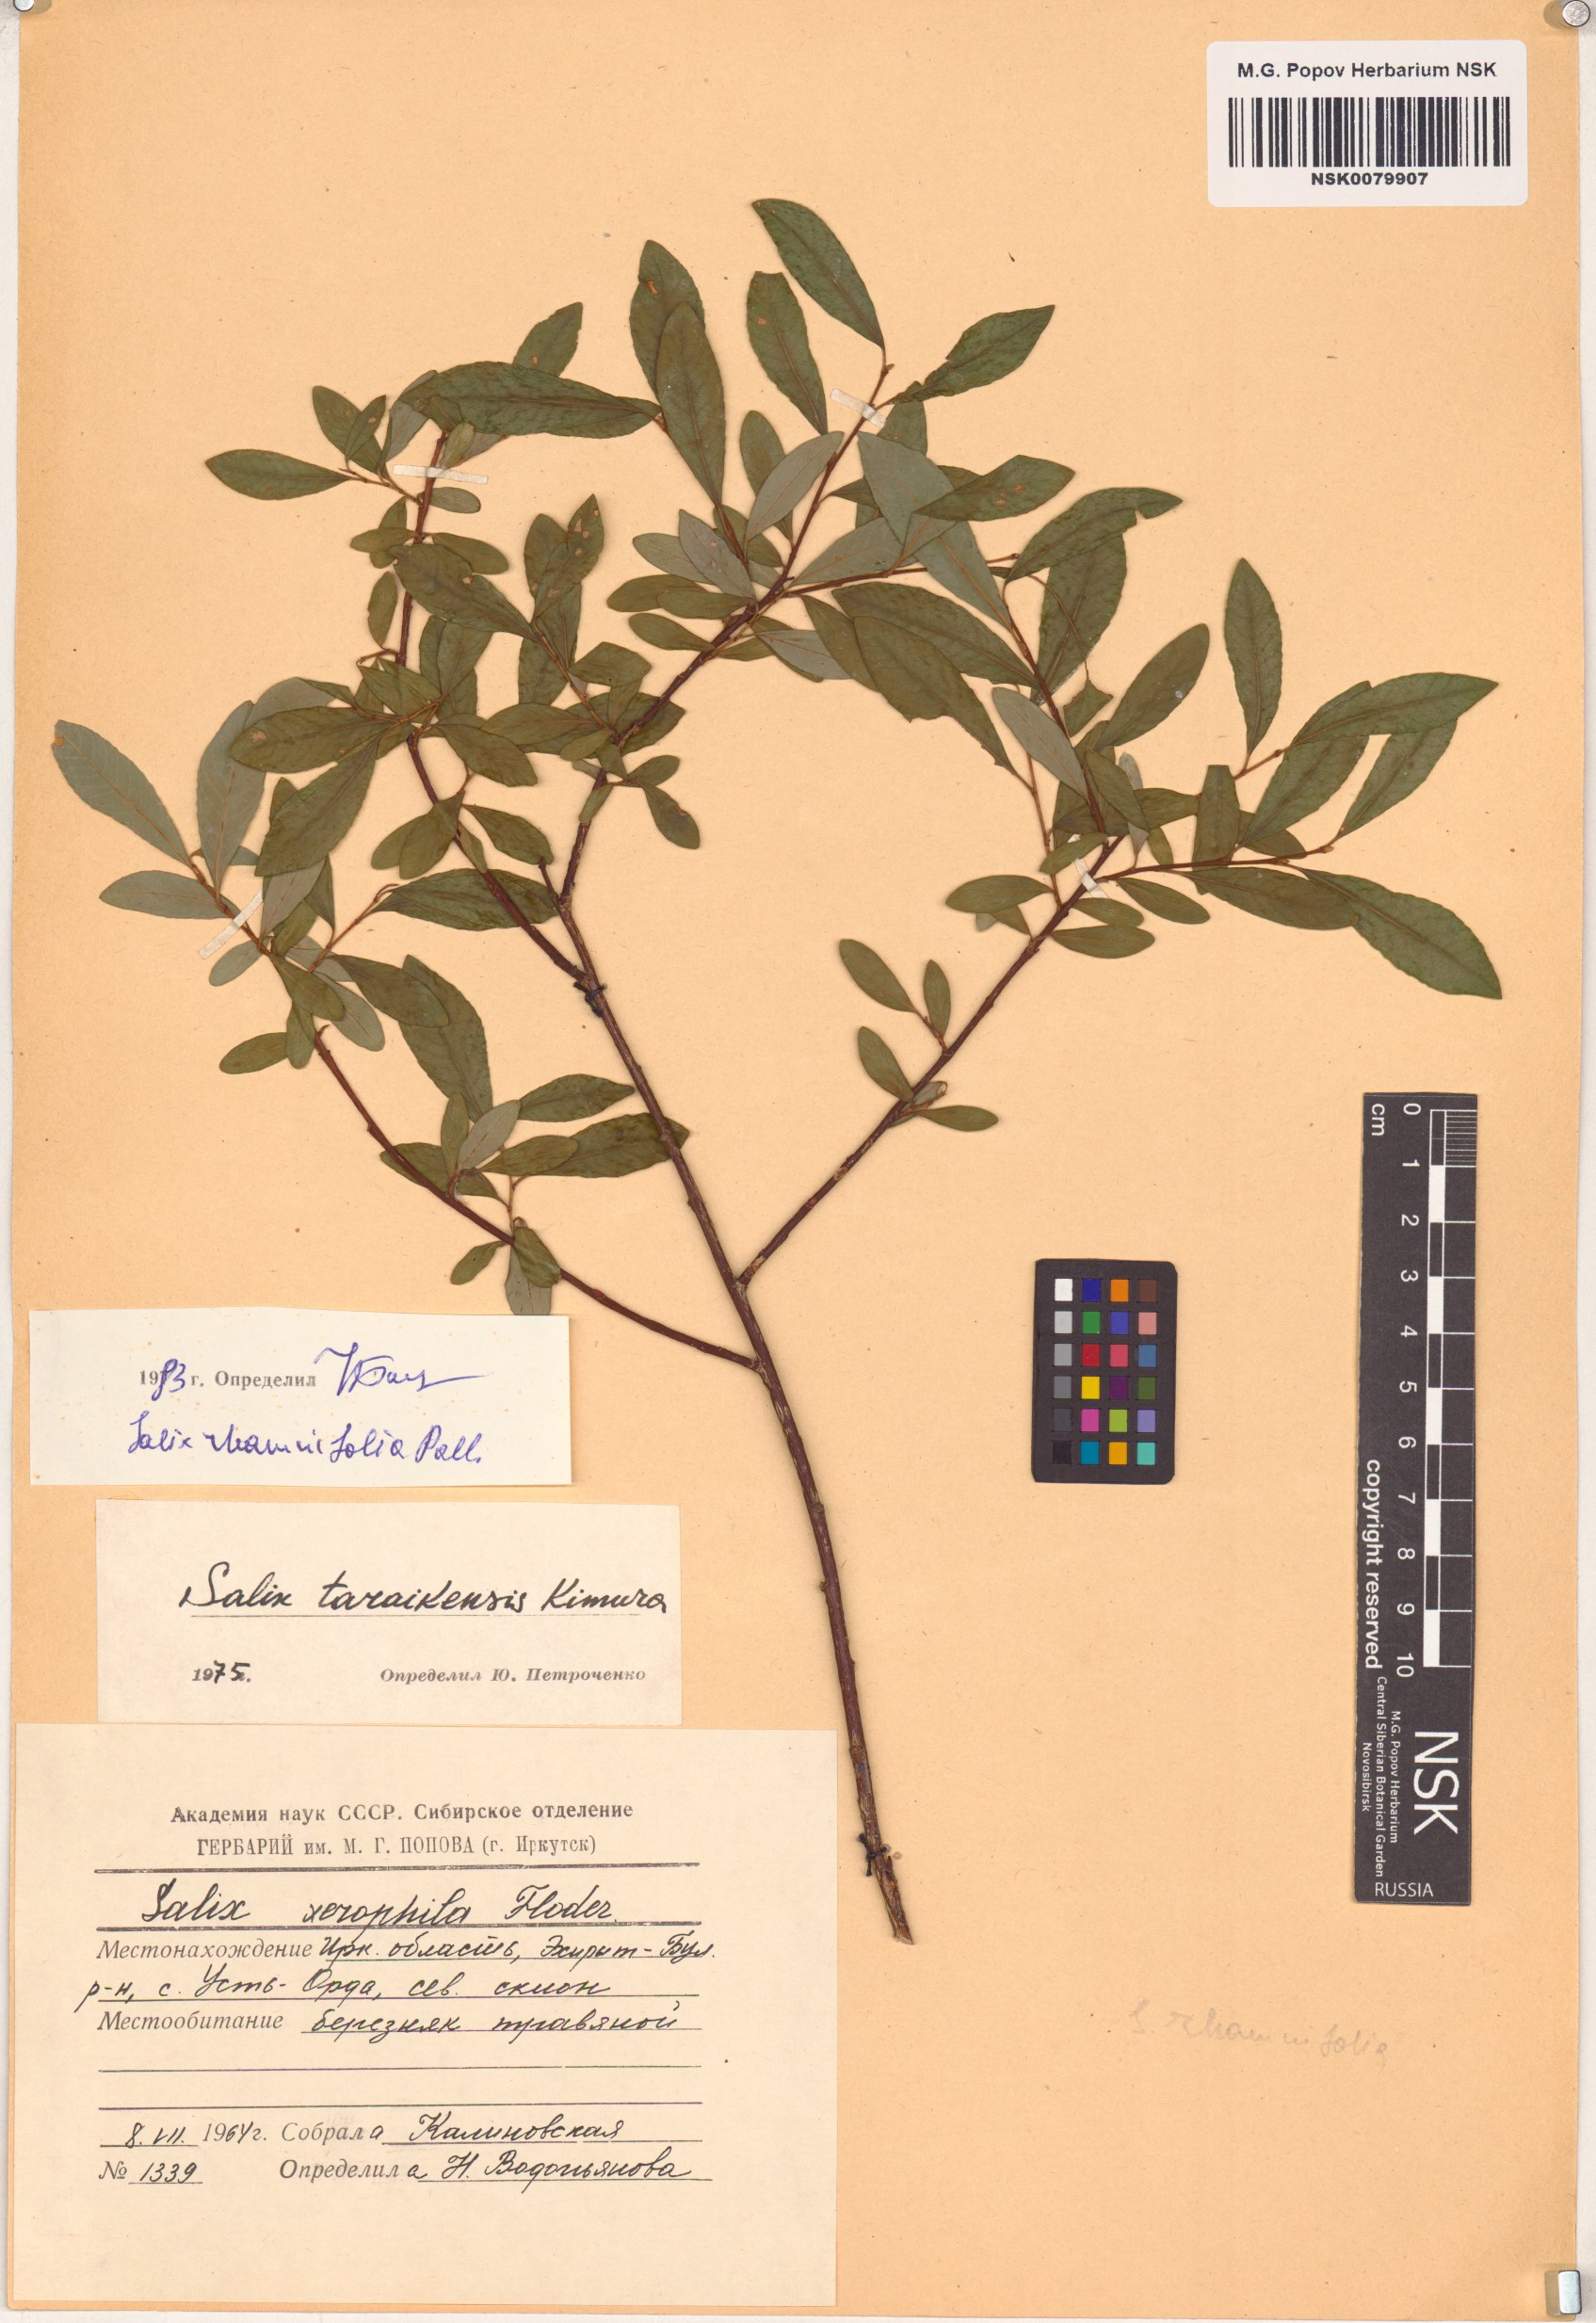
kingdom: Plantae
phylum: Tracheophyta
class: Magnoliopsida
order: Malpighiales
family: Salicaceae
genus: Salix
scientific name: Salix rhamnifolia
